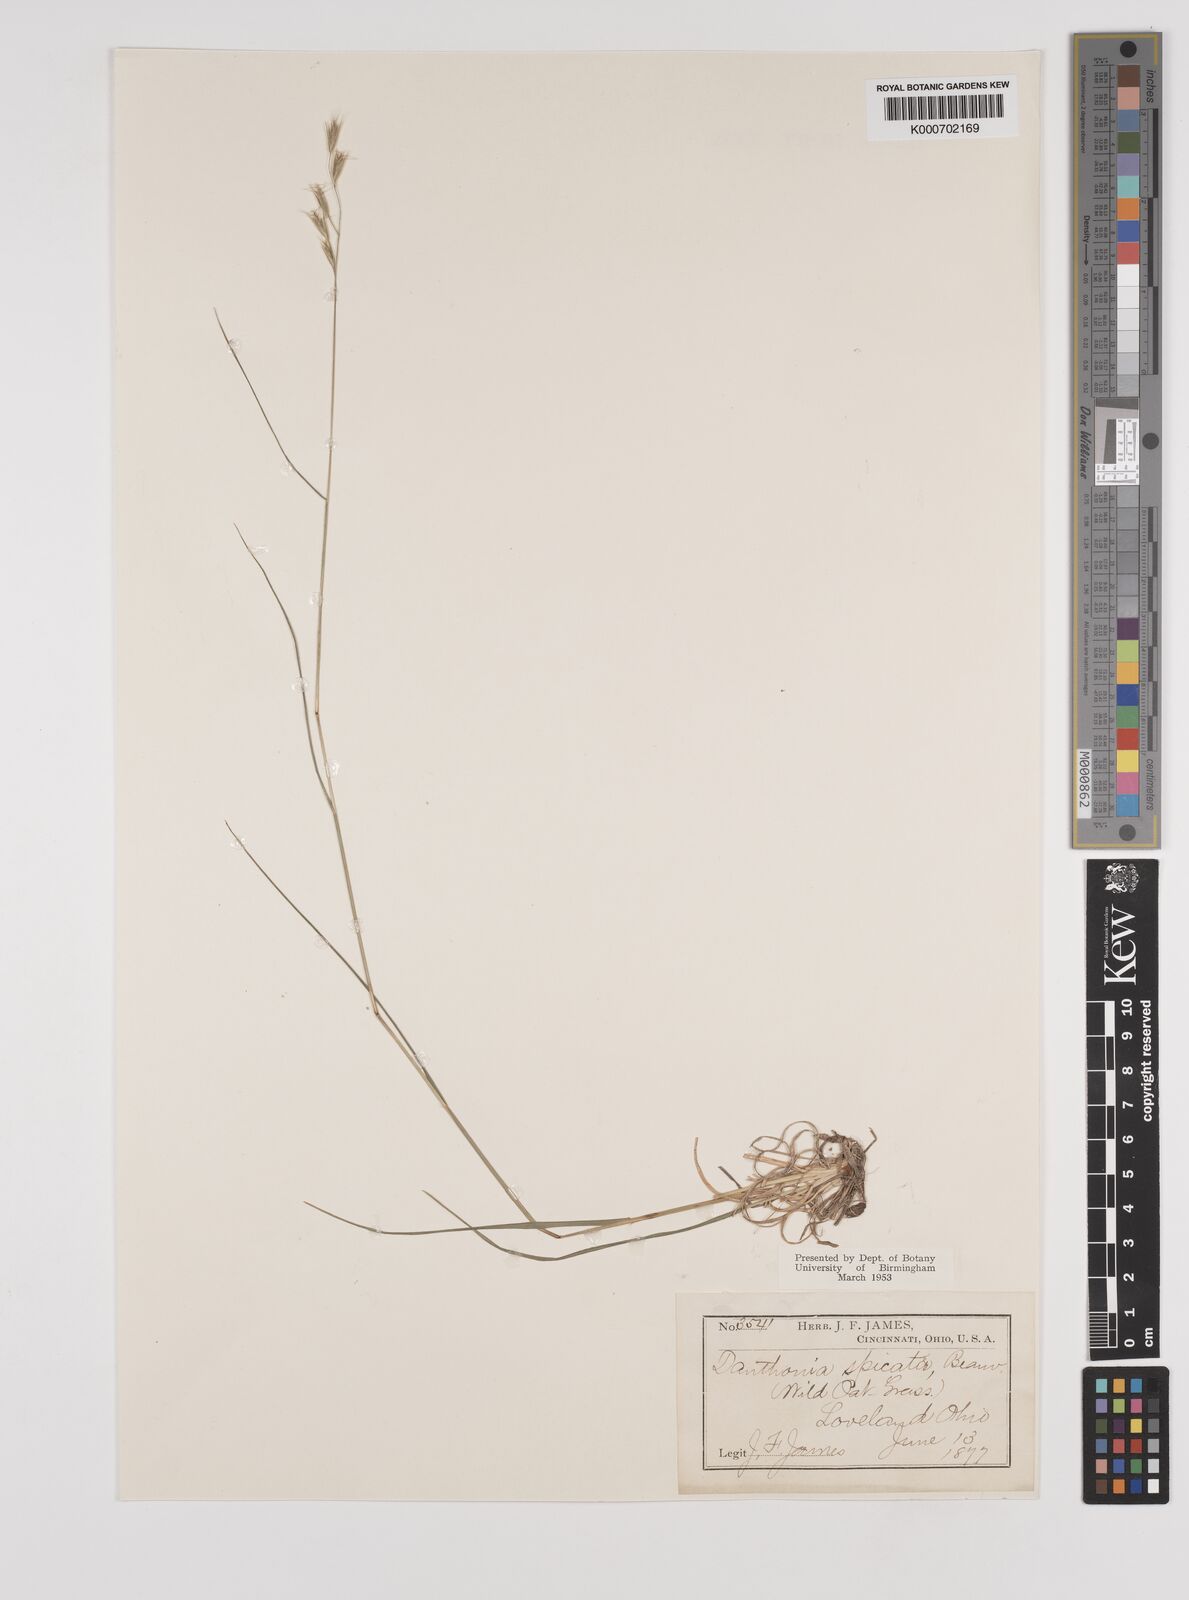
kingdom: Plantae
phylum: Tracheophyta
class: Liliopsida
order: Poales
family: Poaceae
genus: Danthonia
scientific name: Danthonia spicata
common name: Common wild oatgrass
